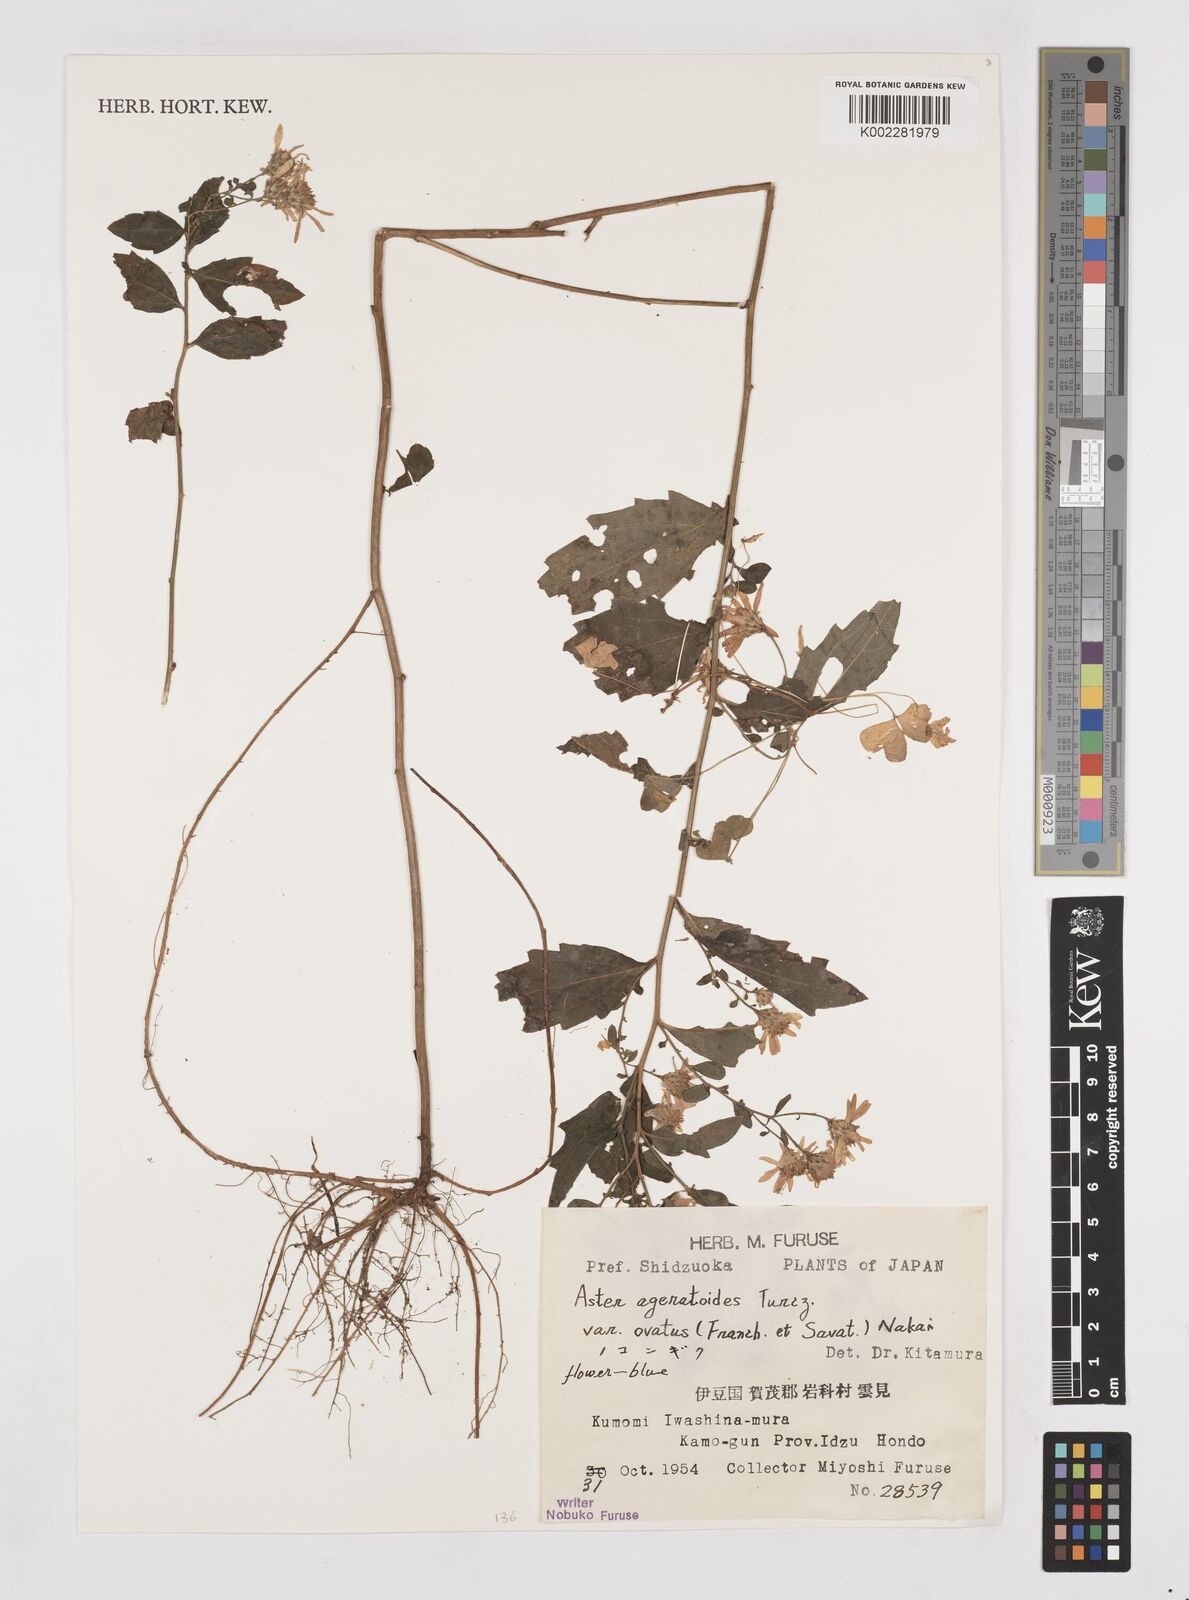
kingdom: Plantae
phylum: Tracheophyta
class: Magnoliopsida
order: Asterales
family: Asteraceae
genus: Aster
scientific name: Aster trinervius
